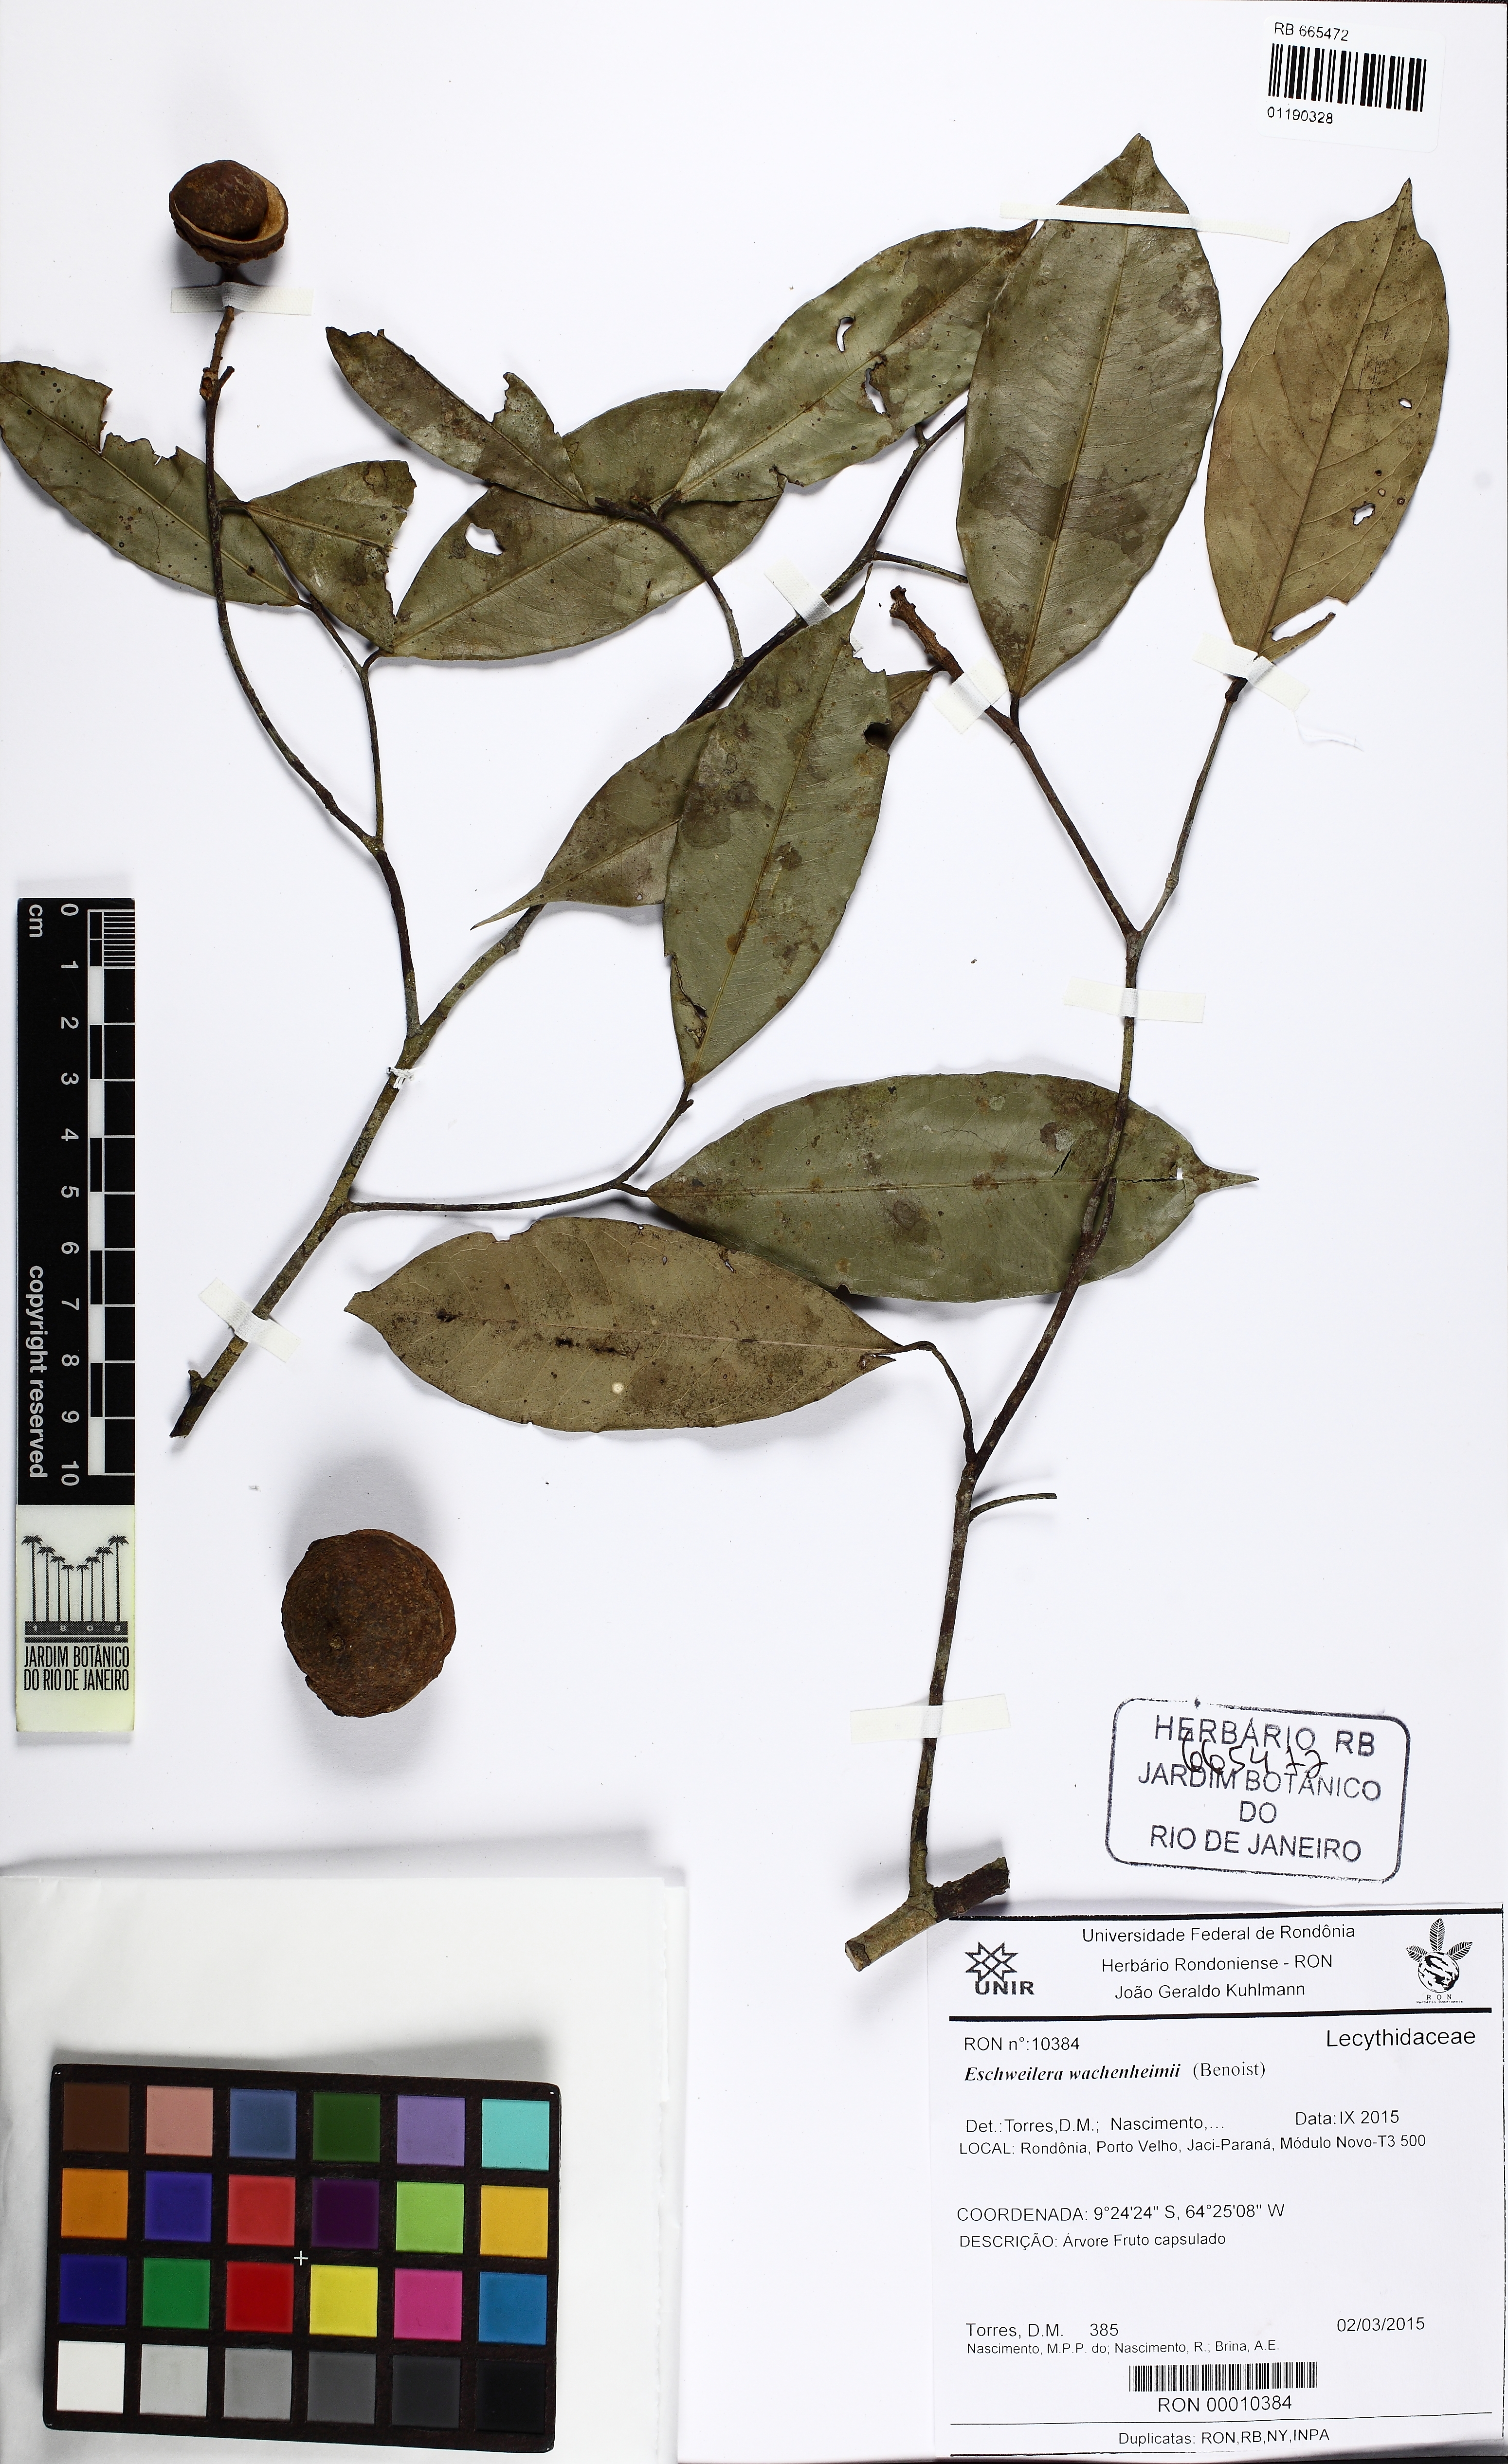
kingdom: Plantae
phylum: Tracheophyta
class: Magnoliopsida
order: Ericales
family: Lecythidaceae
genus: Eschweilera
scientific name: Eschweilera wachenheimii
